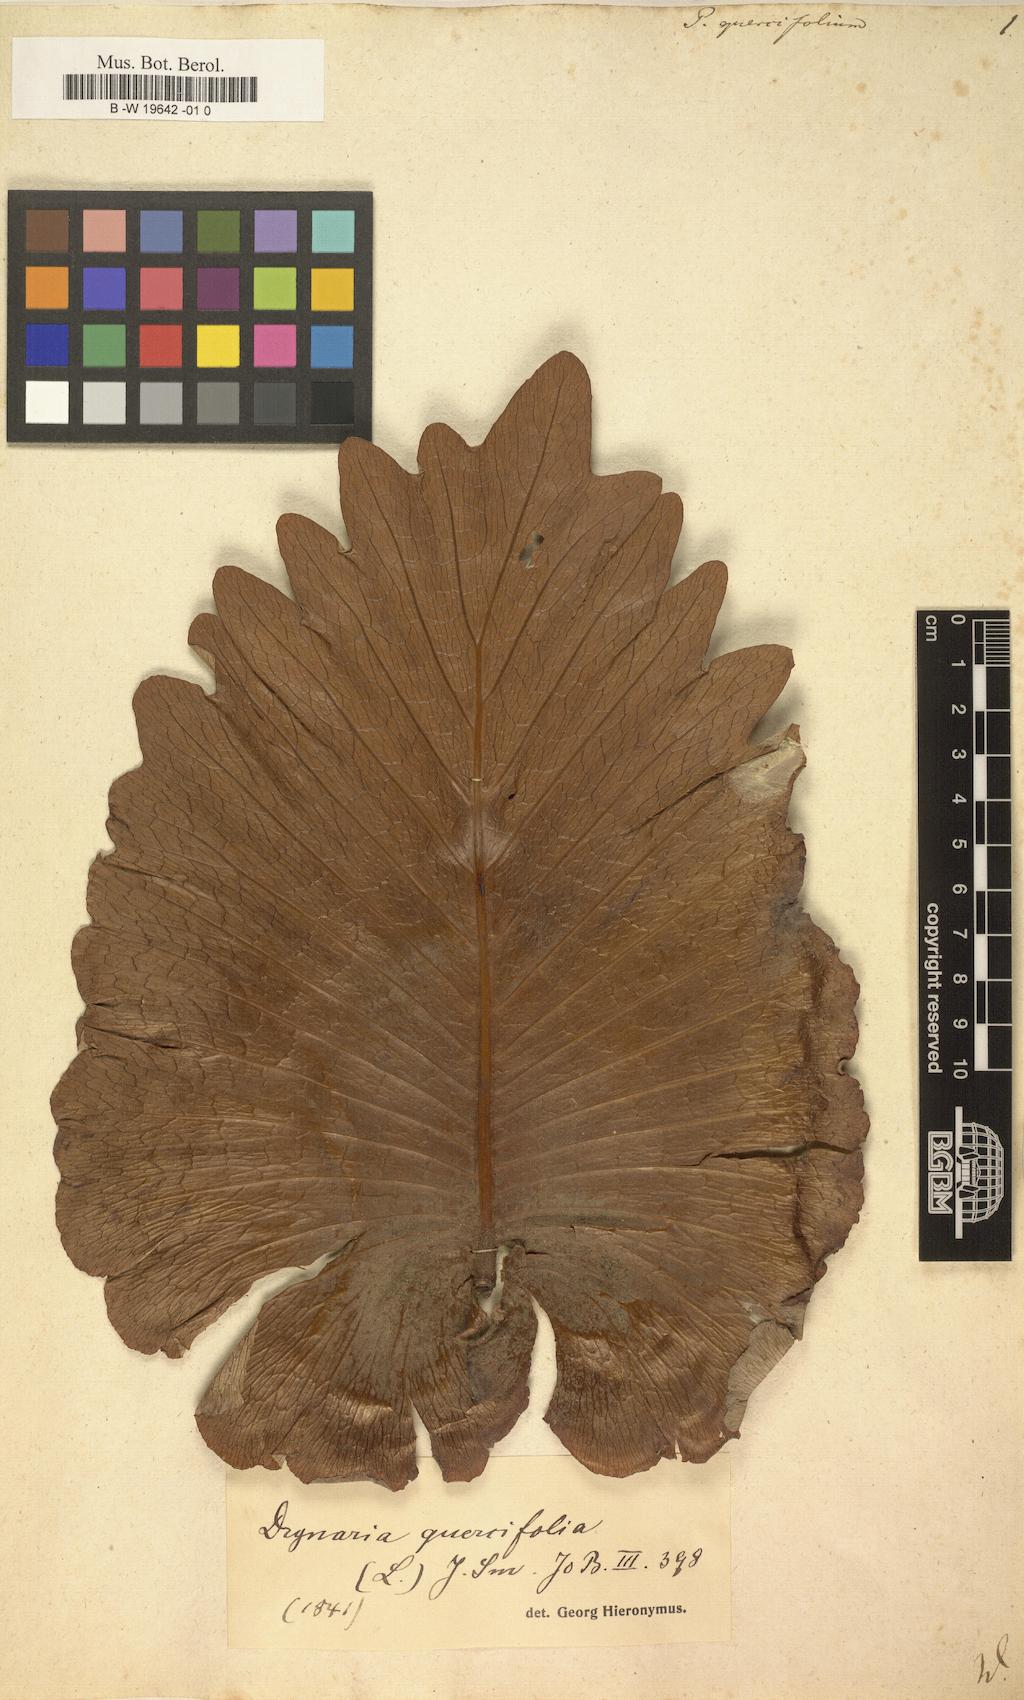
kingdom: Plantae
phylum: Tracheophyta
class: Polypodiopsida
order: Polypodiales
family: Polypodiaceae
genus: Drynaria
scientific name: Drynaria quercifolia
